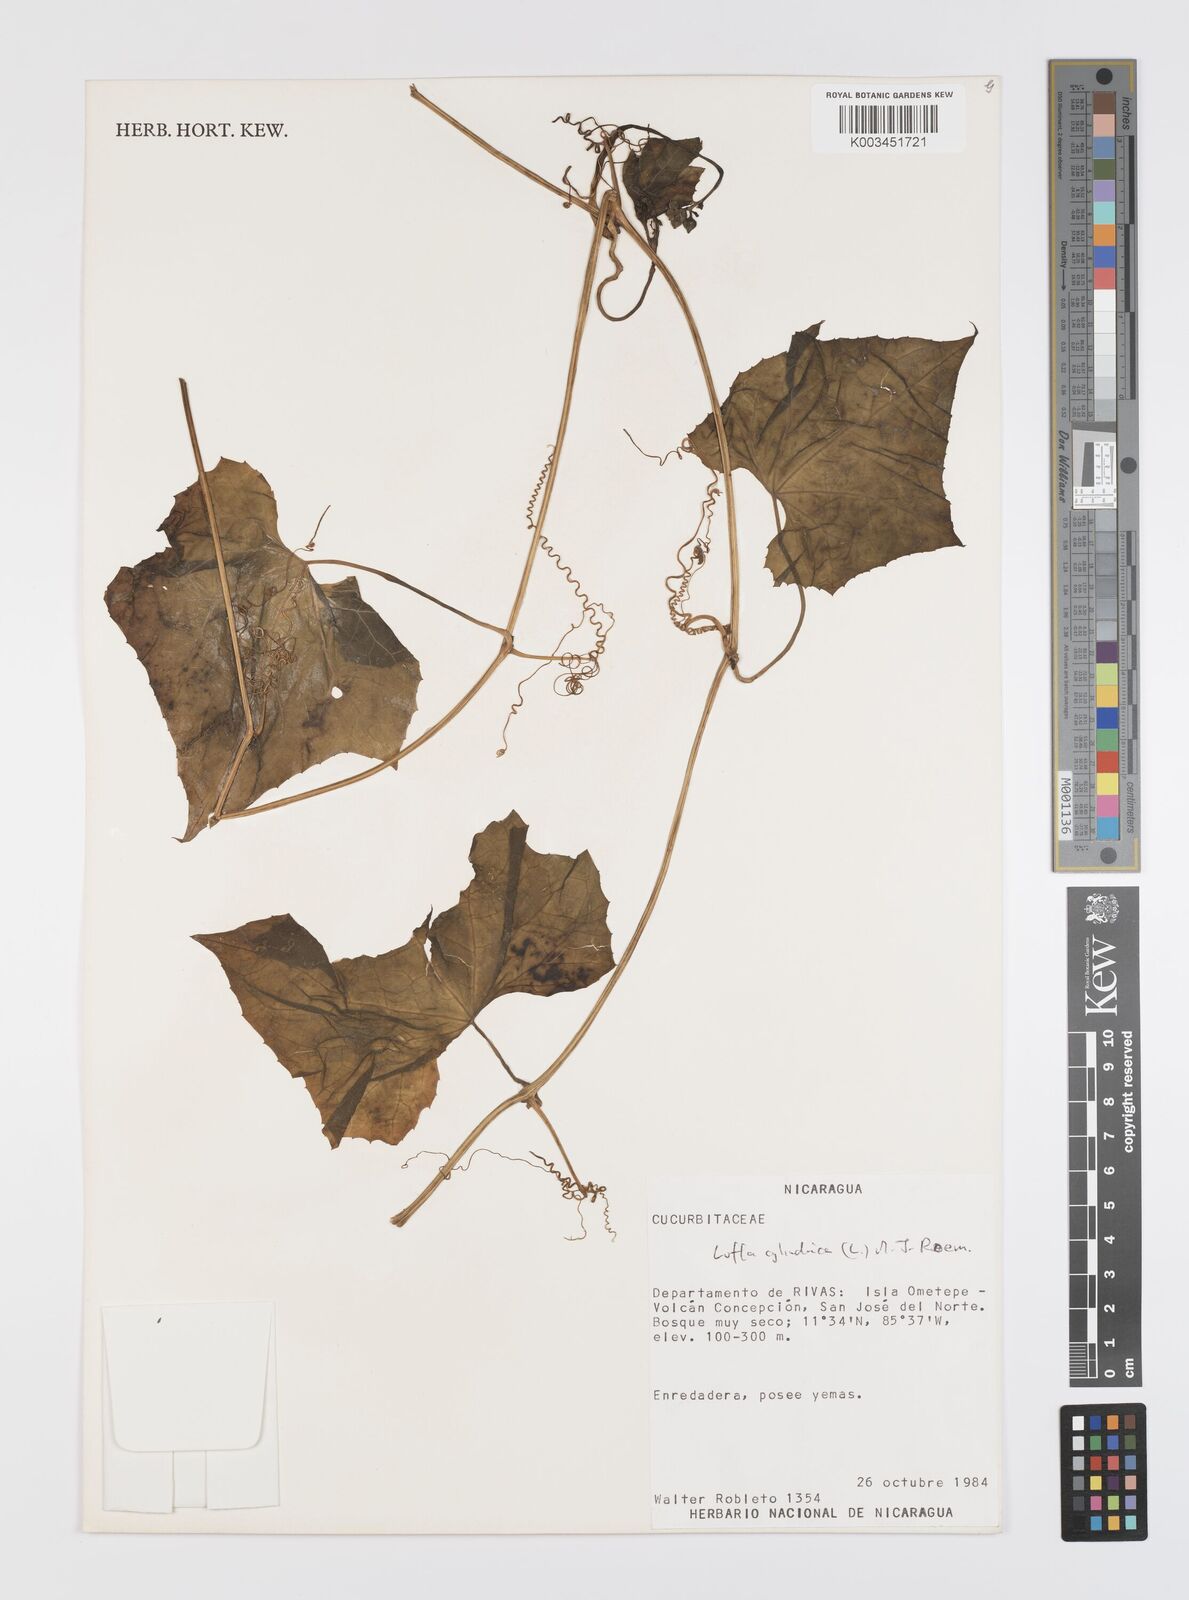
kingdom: Plantae
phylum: Tracheophyta
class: Magnoliopsida
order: Cucurbitales
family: Cucurbitaceae
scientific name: Cucurbitaceae
